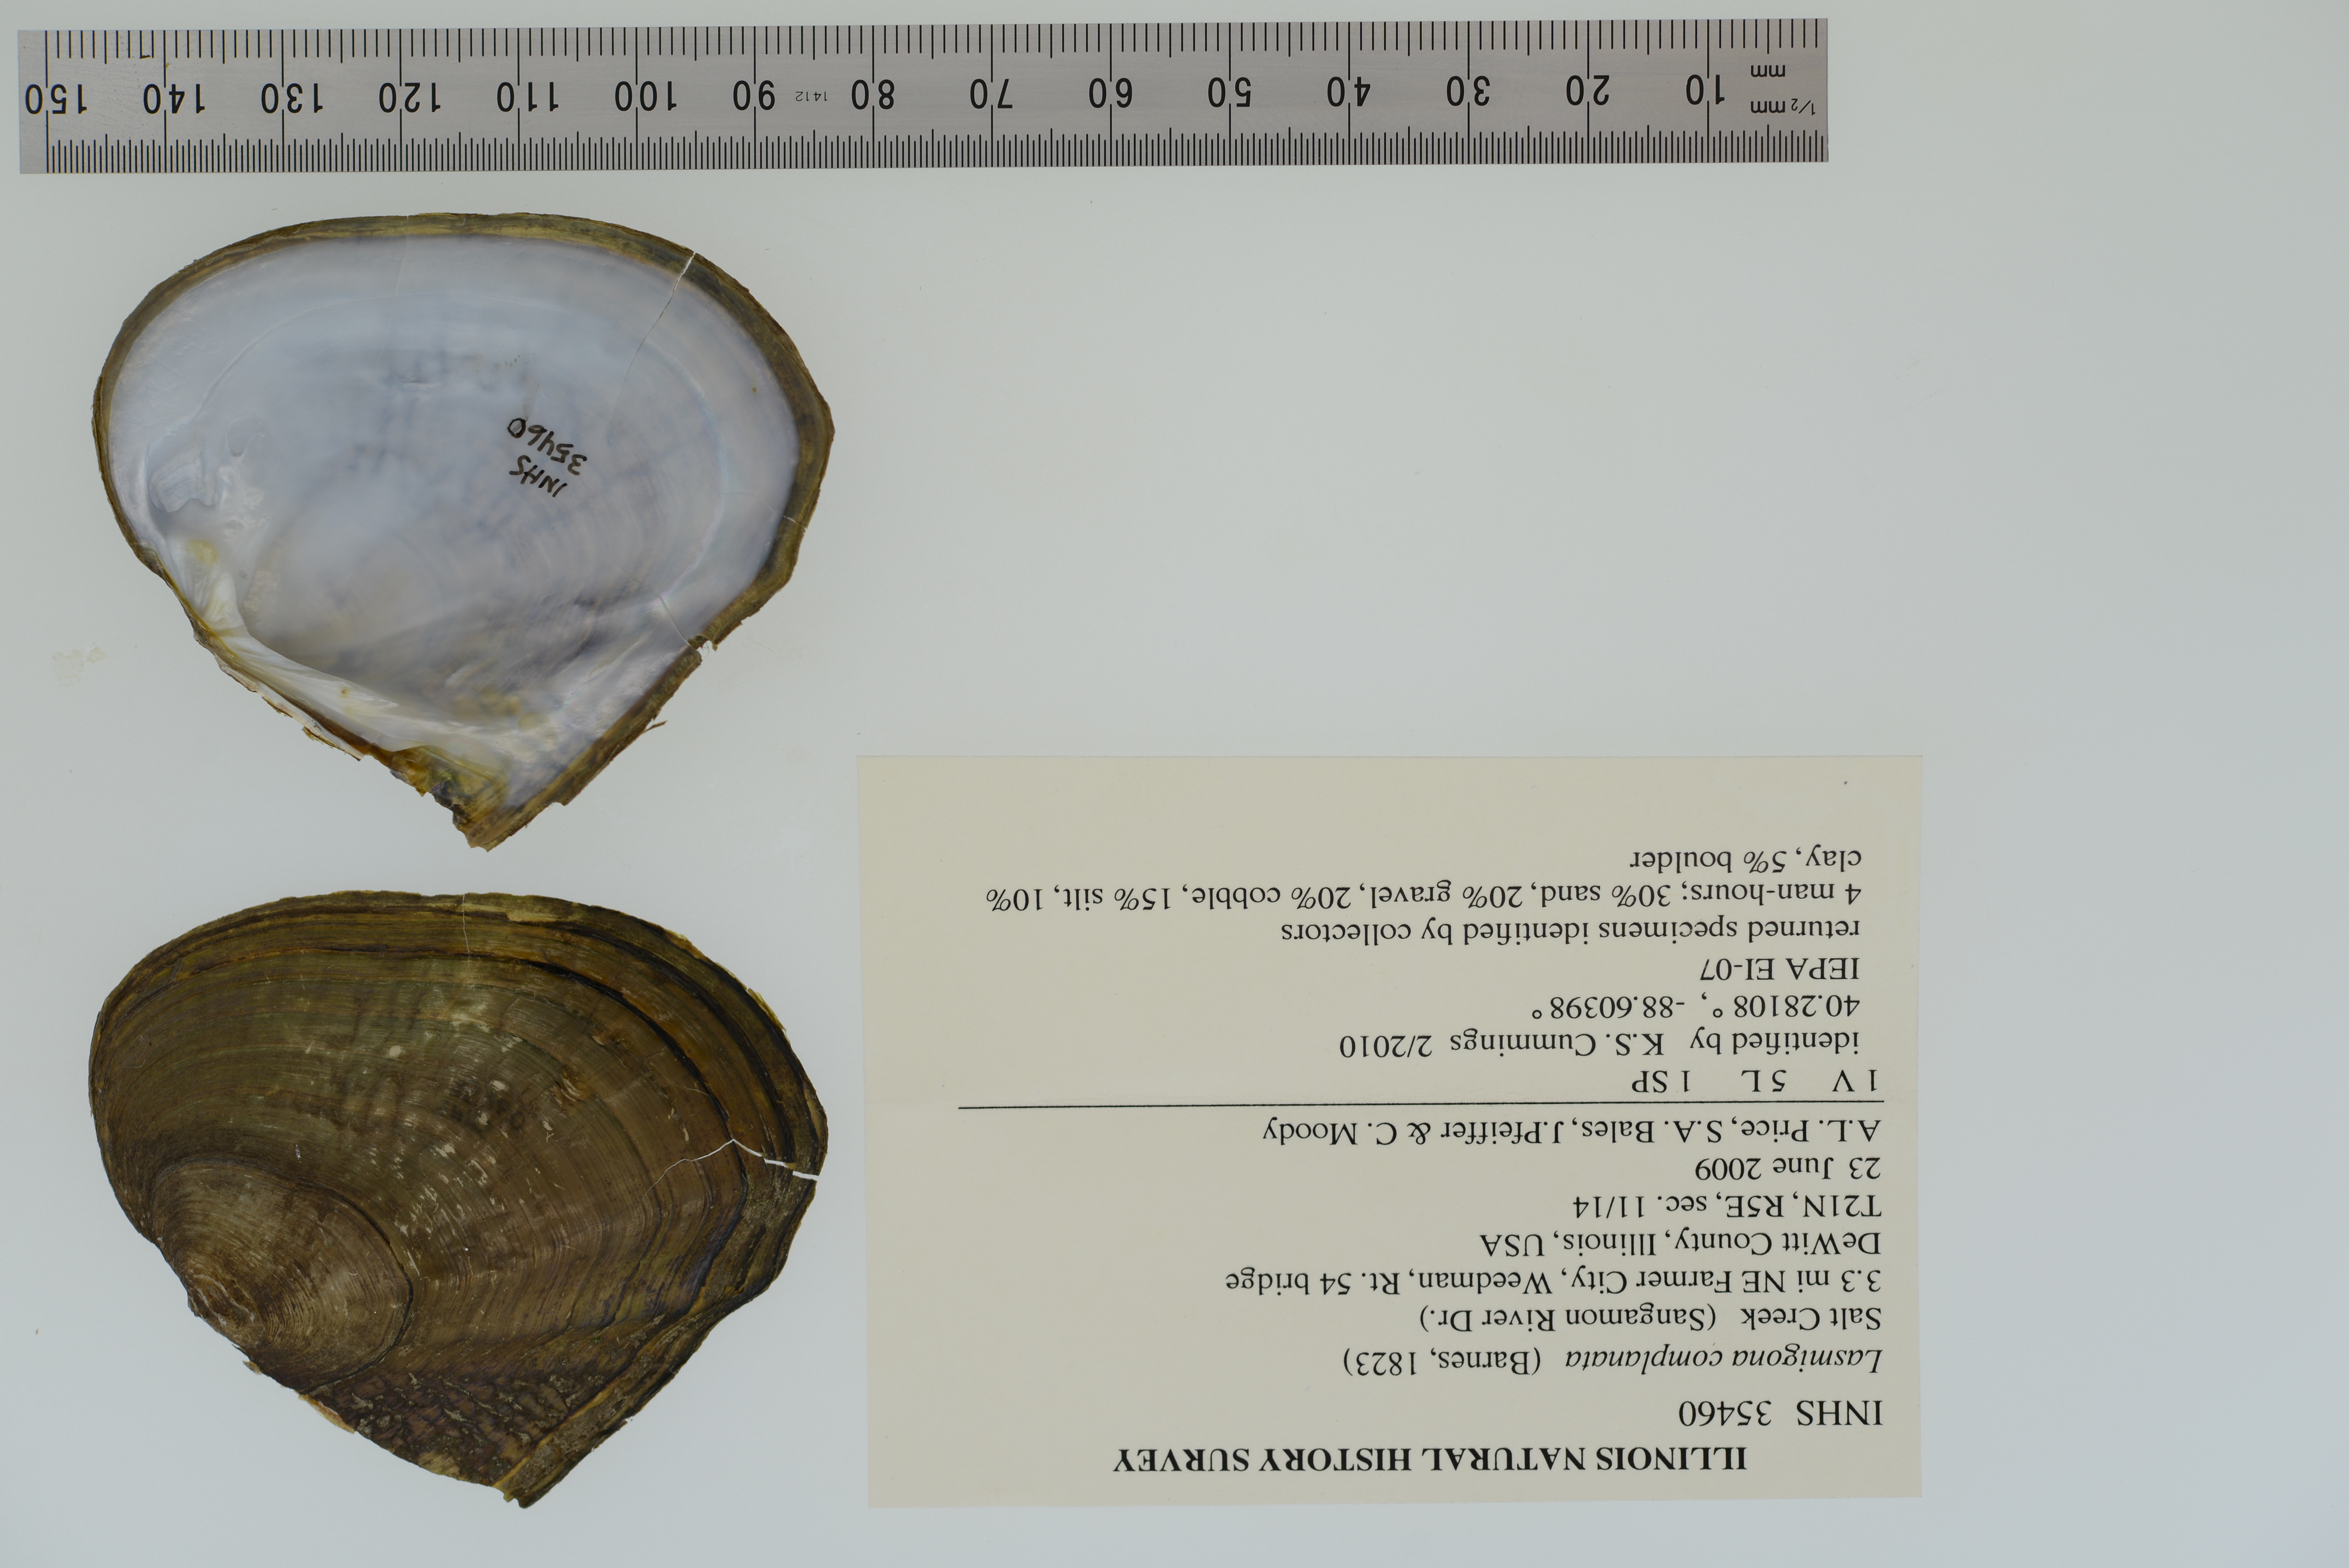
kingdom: Animalia
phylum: Mollusca
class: Bivalvia
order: Unionida
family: Unionidae
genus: Lasmigona
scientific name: Lasmigona complanata
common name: White heelsplitter
